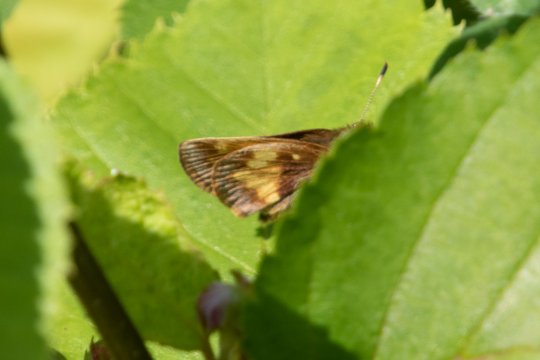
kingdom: Animalia
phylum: Arthropoda
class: Insecta
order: Lepidoptera
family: Hesperiidae
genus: Lon
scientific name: Lon hobomok
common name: Hobomok Skipper
